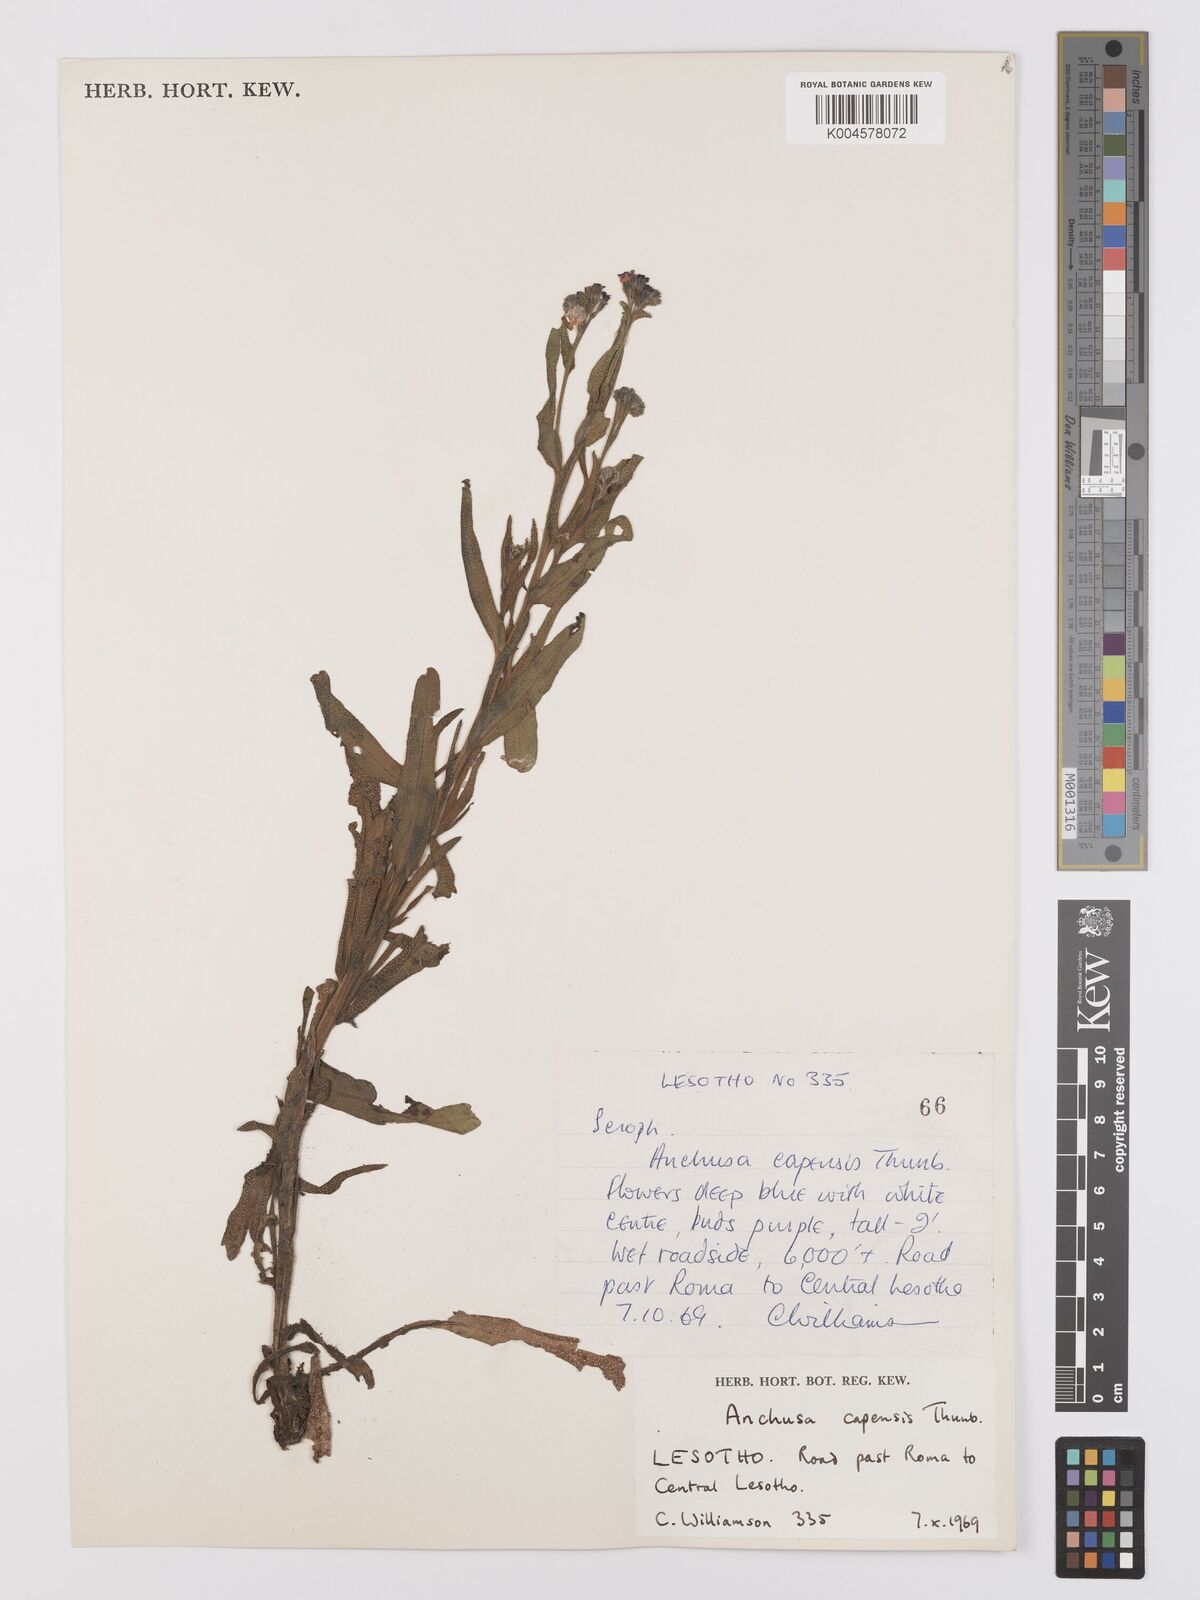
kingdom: Plantae
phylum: Tracheophyta
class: Magnoliopsida
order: Boraginales
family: Boraginaceae
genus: Anchusa
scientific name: Anchusa capensis
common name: Cape bugloss
